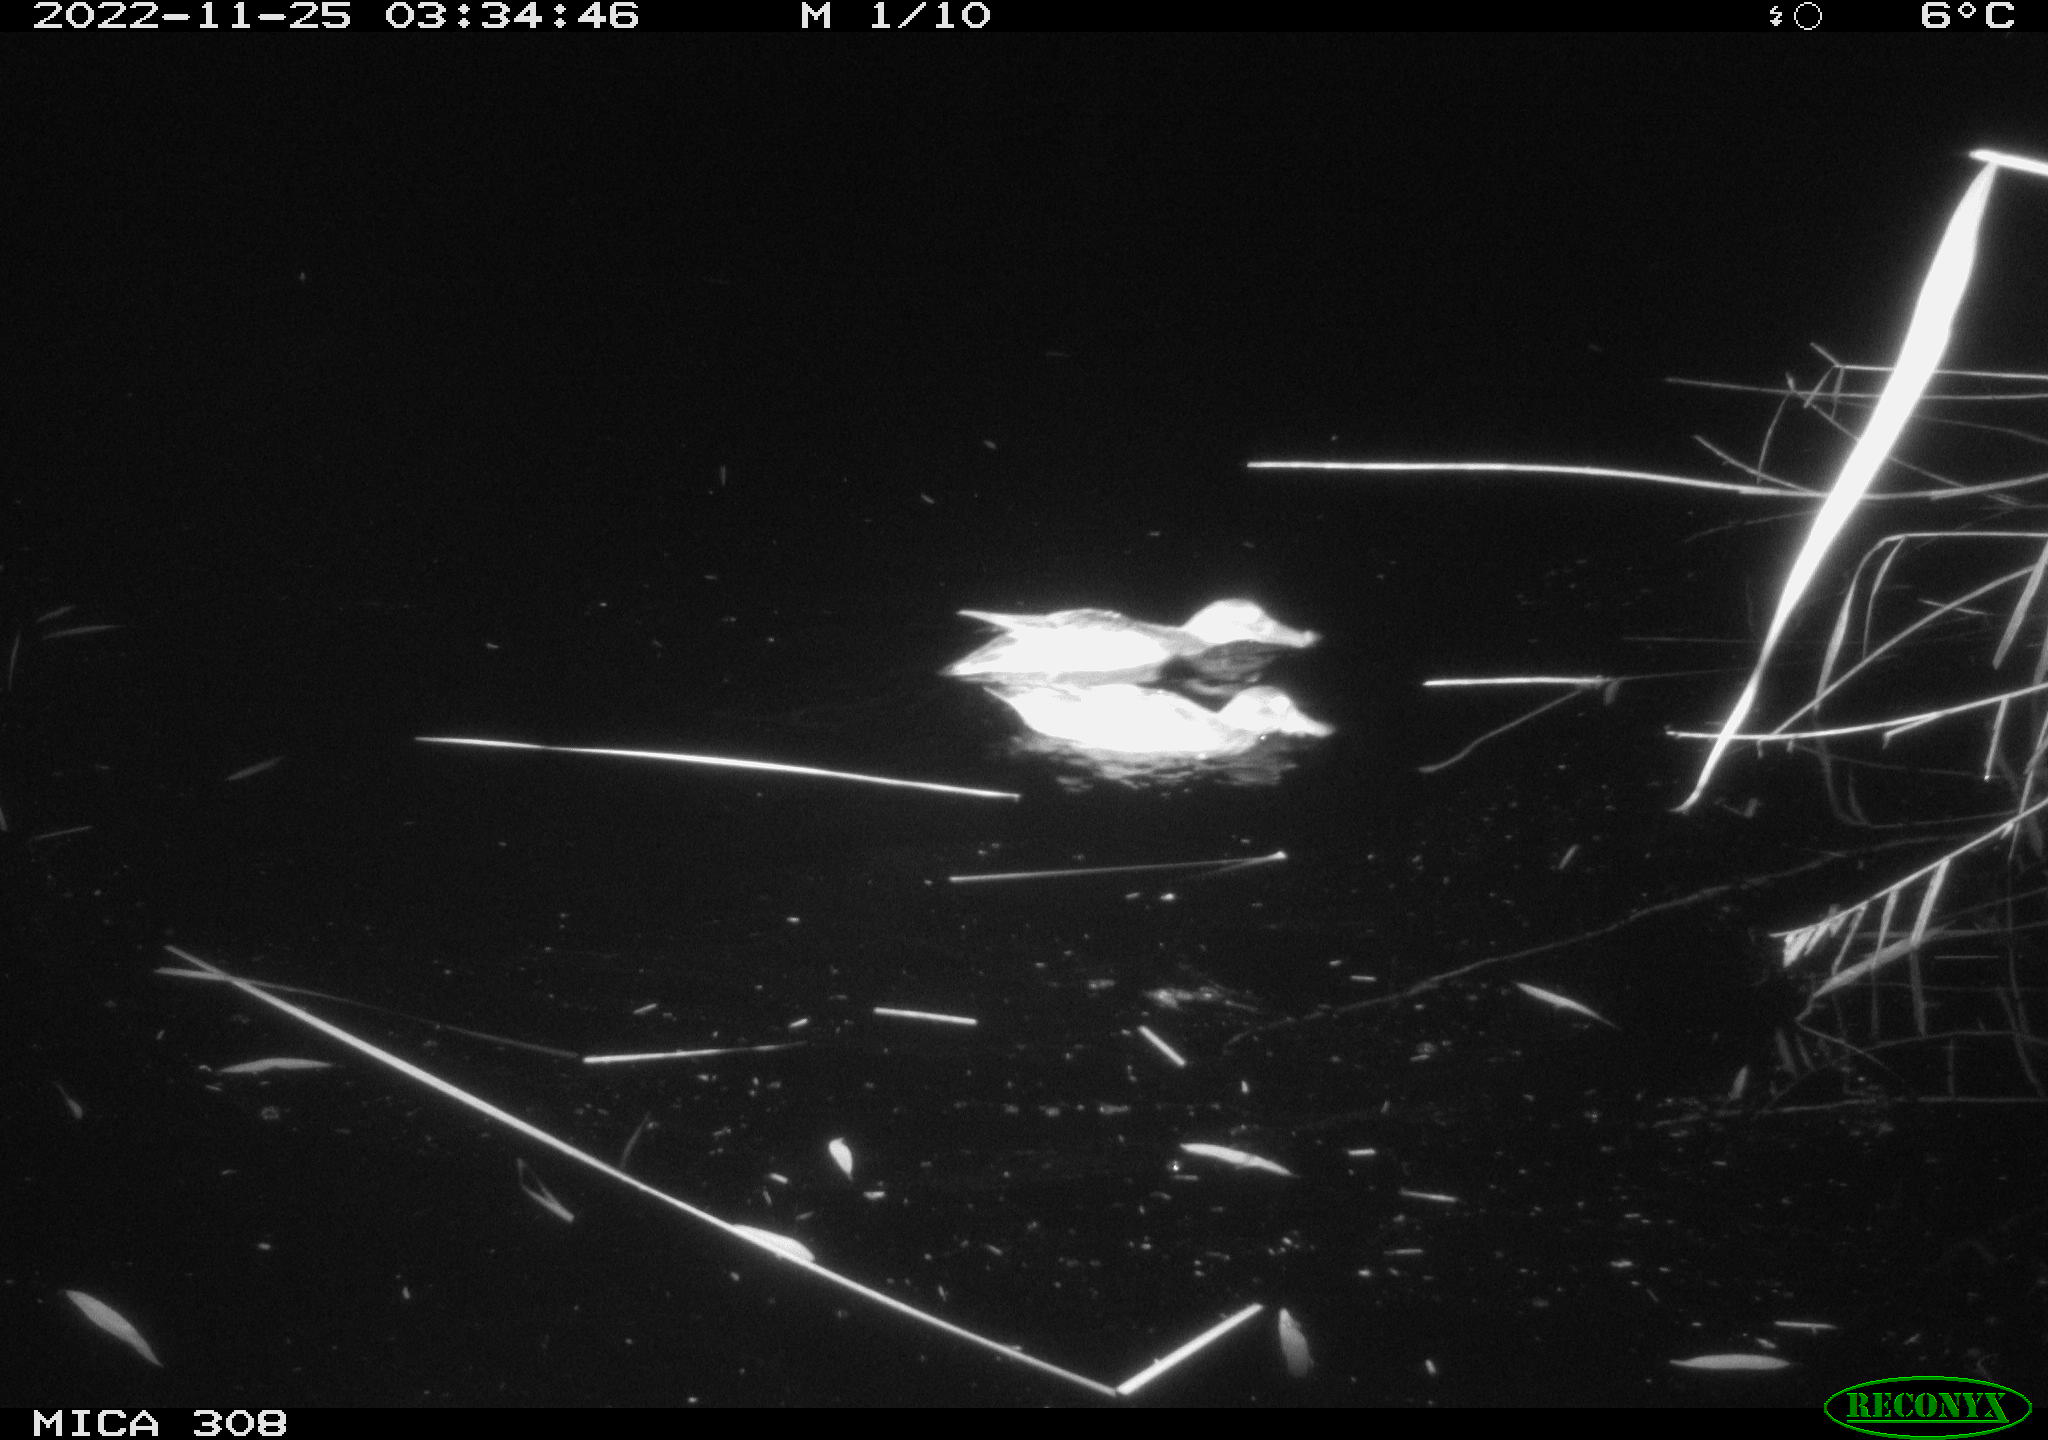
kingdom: Animalia
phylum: Chordata
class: Aves
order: Anseriformes
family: Anatidae
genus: Anas
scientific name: Anas
